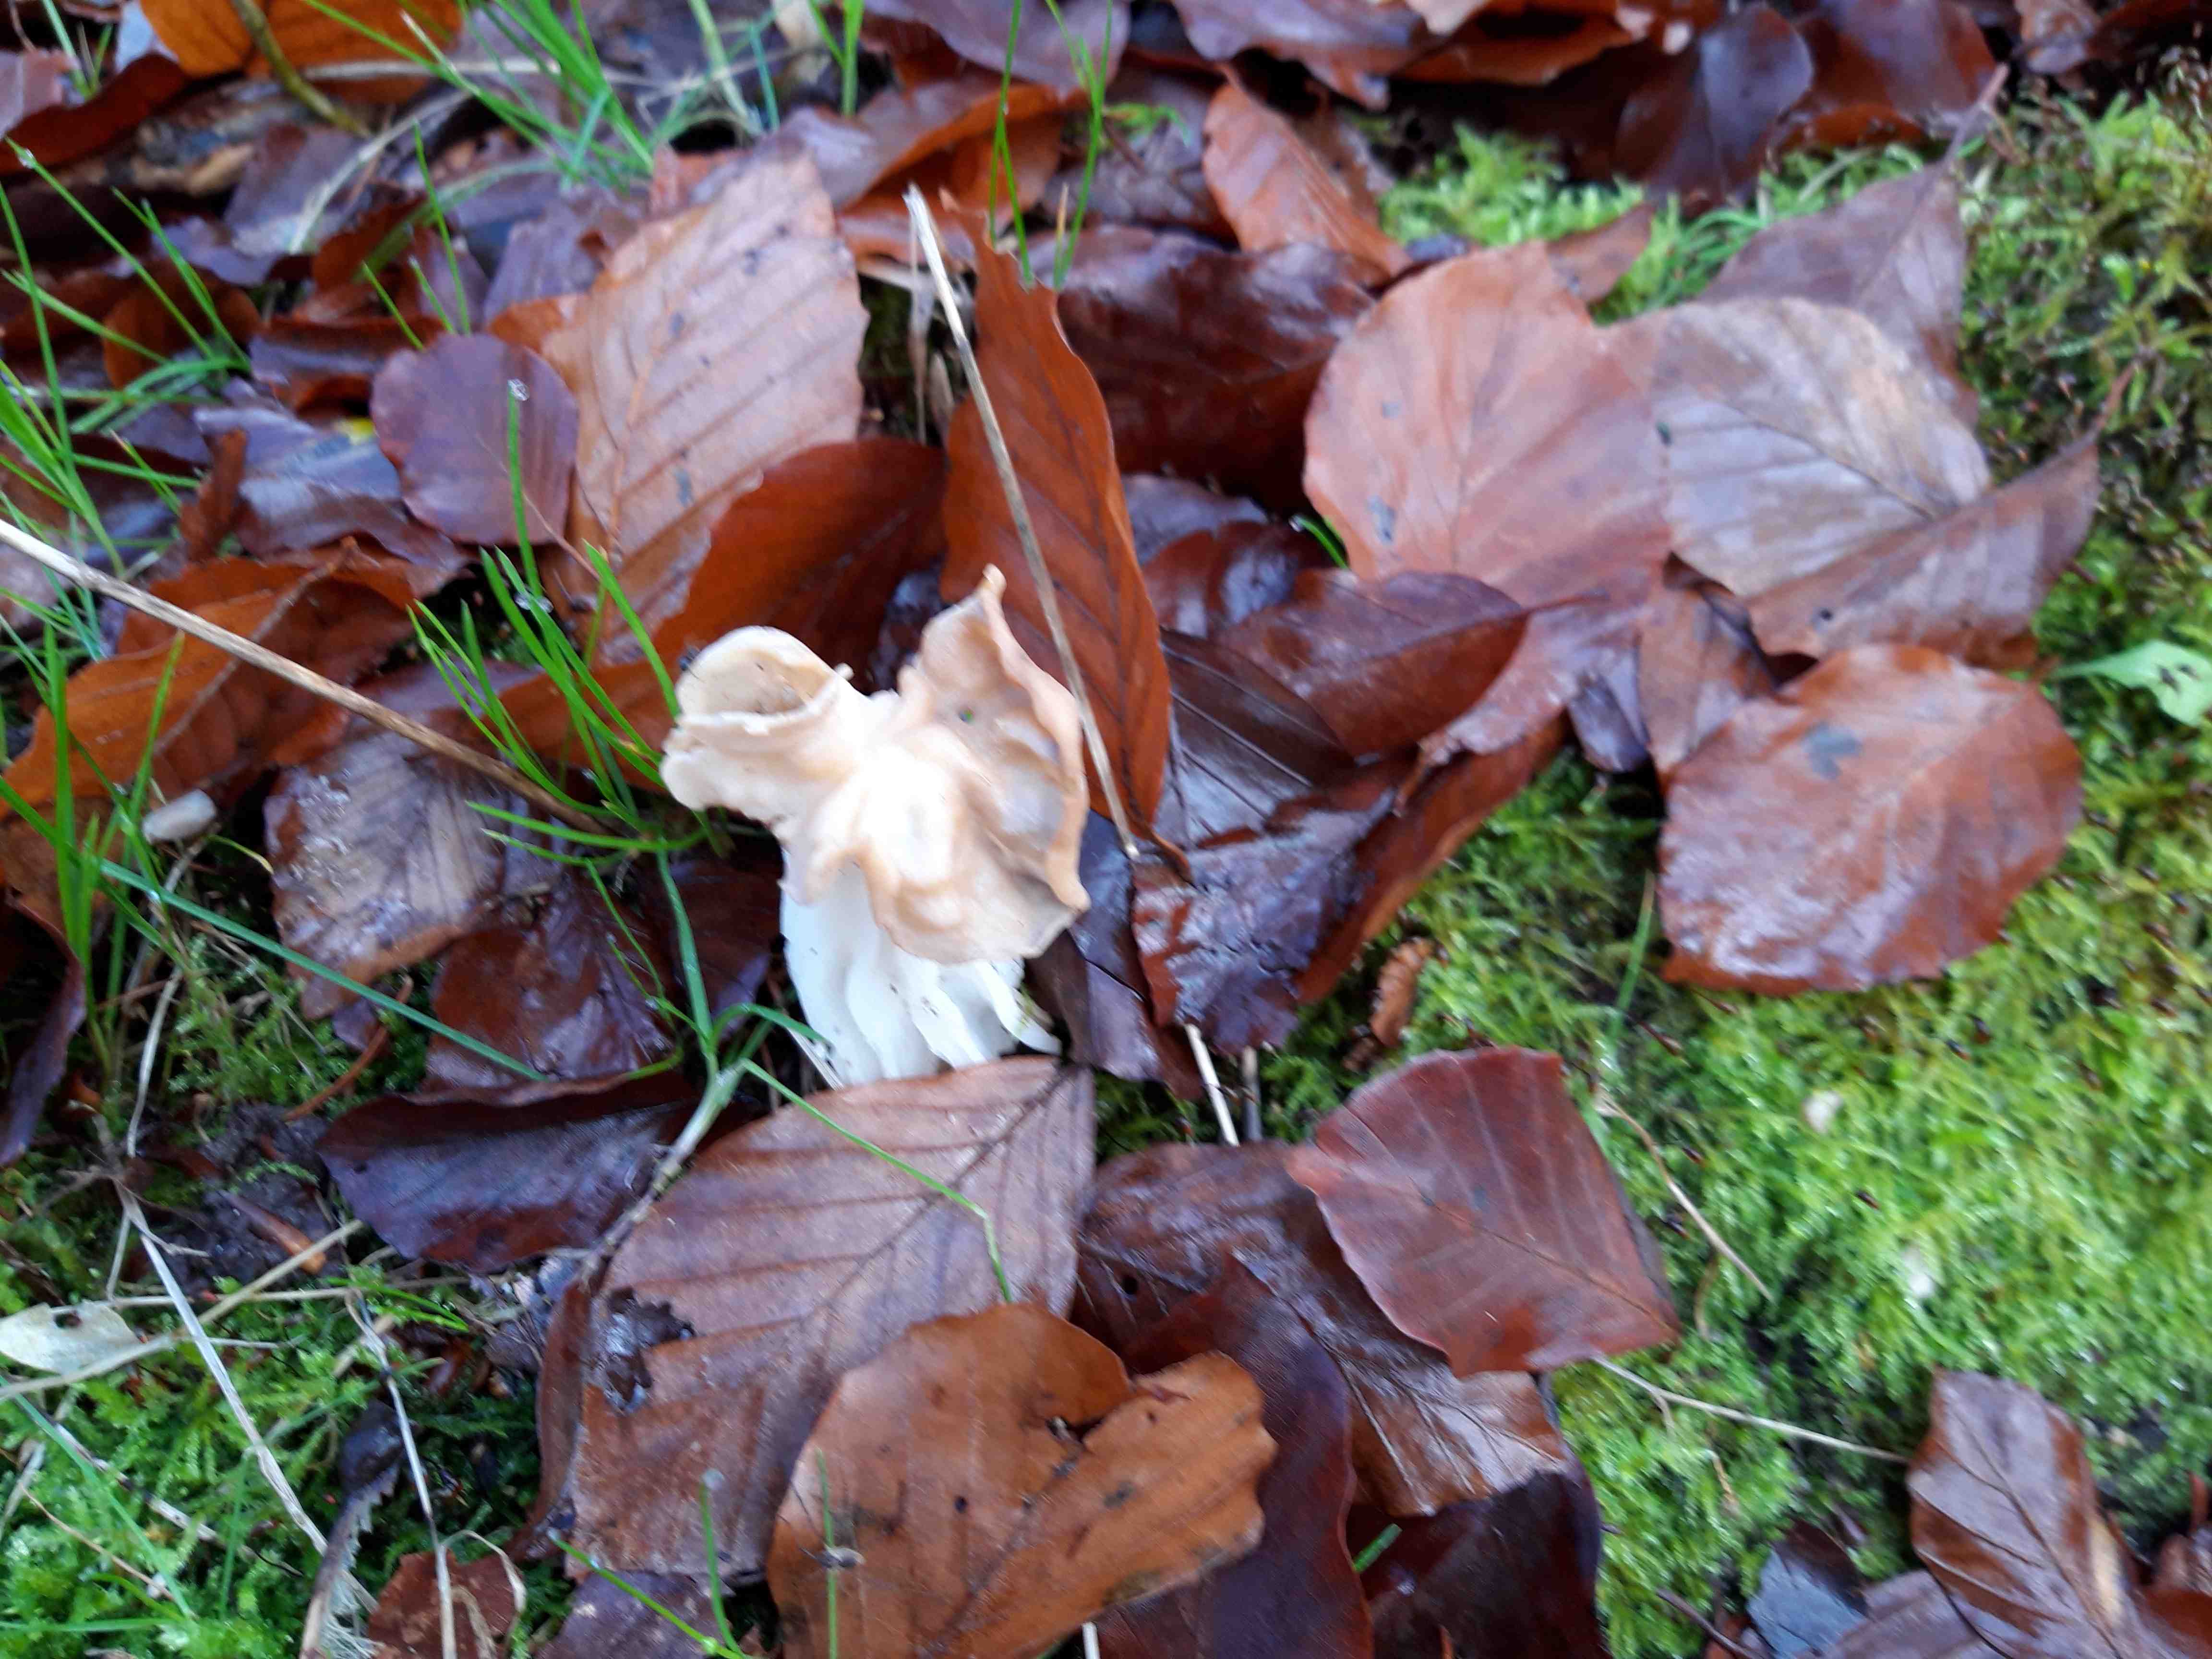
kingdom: Fungi
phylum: Ascomycota
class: Pezizomycetes
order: Pezizales
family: Helvellaceae
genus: Helvella
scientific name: Helvella crispa
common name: kruset foldhat
